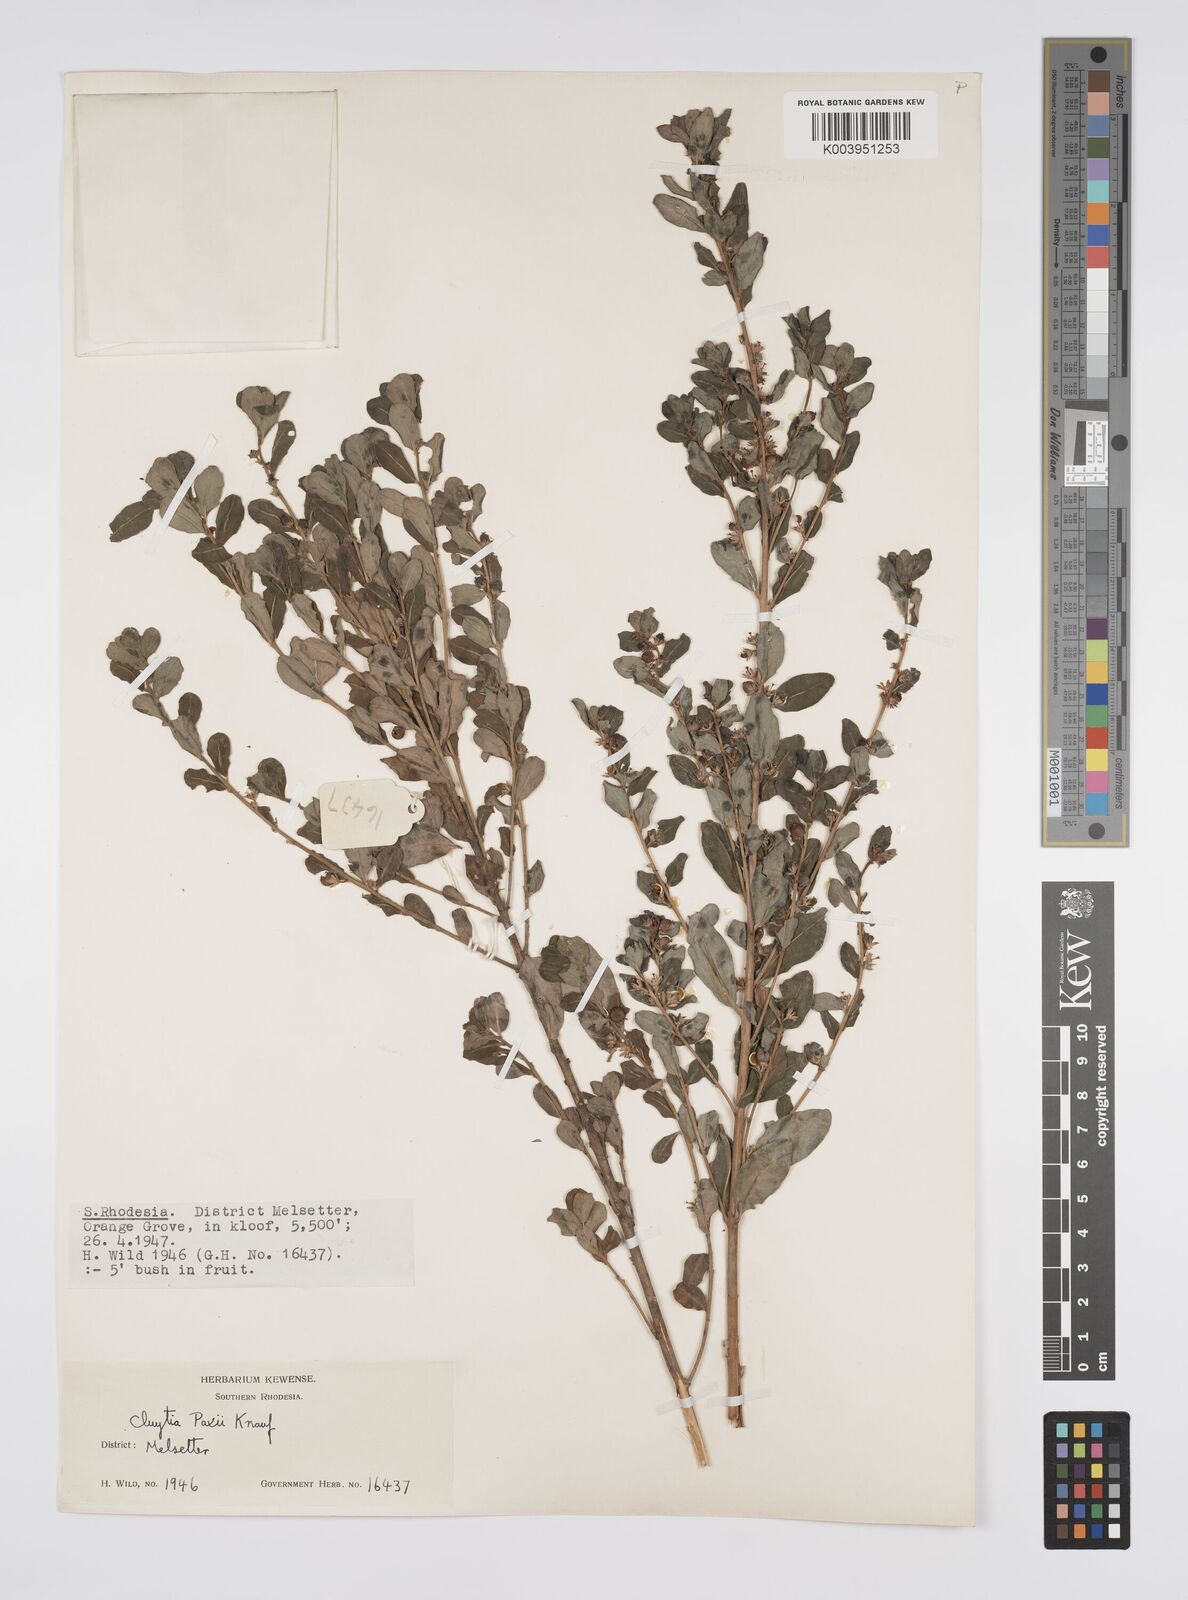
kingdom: Plantae
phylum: Tracheophyta
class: Magnoliopsida
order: Malpighiales
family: Peraceae
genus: Clutia
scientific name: Clutia paxii
